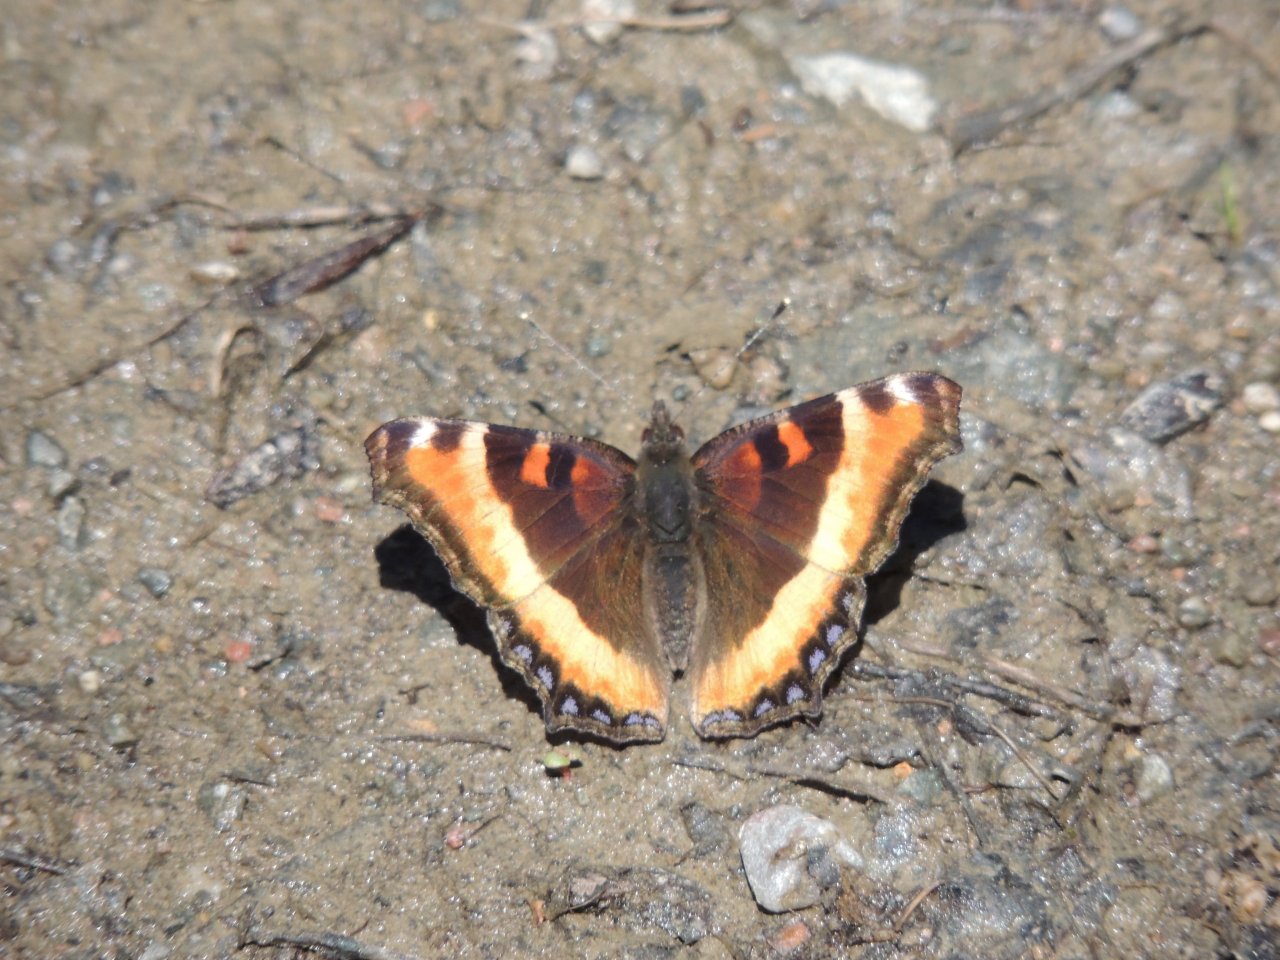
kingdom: Animalia
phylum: Arthropoda
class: Insecta
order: Lepidoptera
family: Nymphalidae
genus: Aglais
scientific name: Aglais milberti
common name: Milbert's Tortoiseshell
